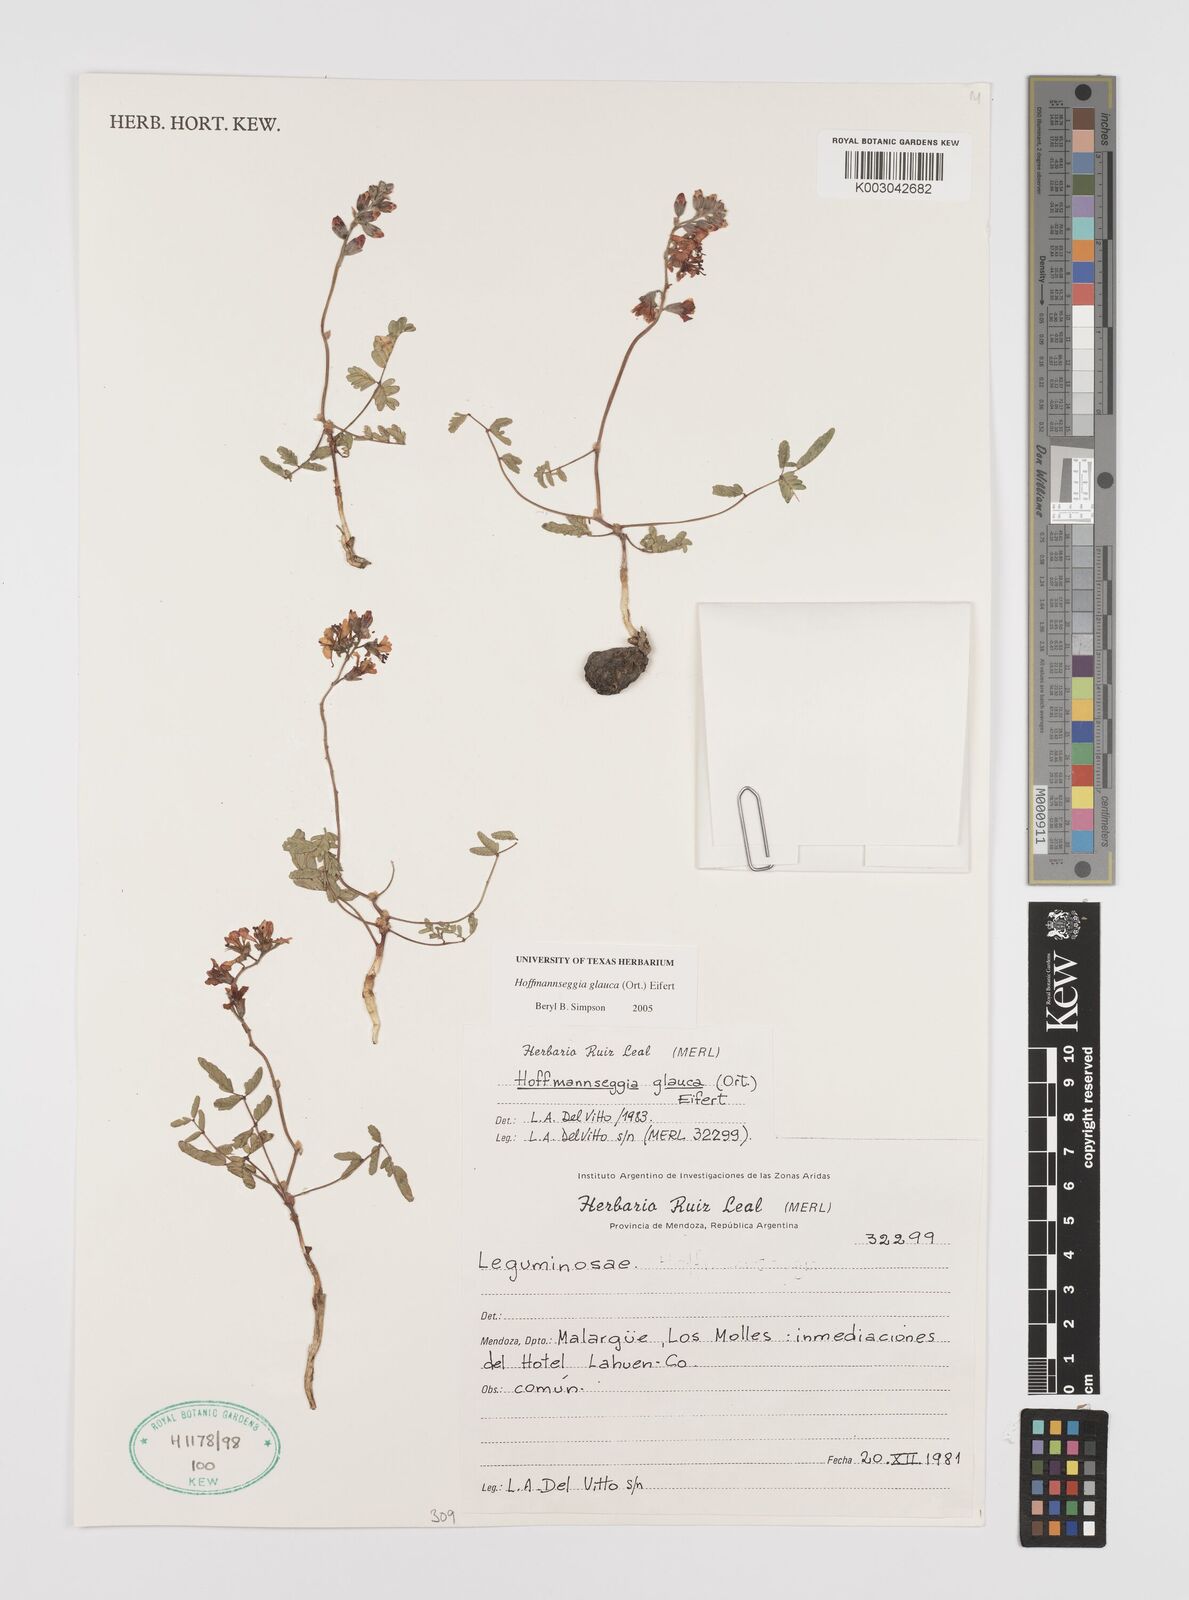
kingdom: Plantae
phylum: Tracheophyta
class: Magnoliopsida
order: Fabales
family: Fabaceae
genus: Hoffmannseggia
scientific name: Hoffmannseggia glauca
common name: Pignut
